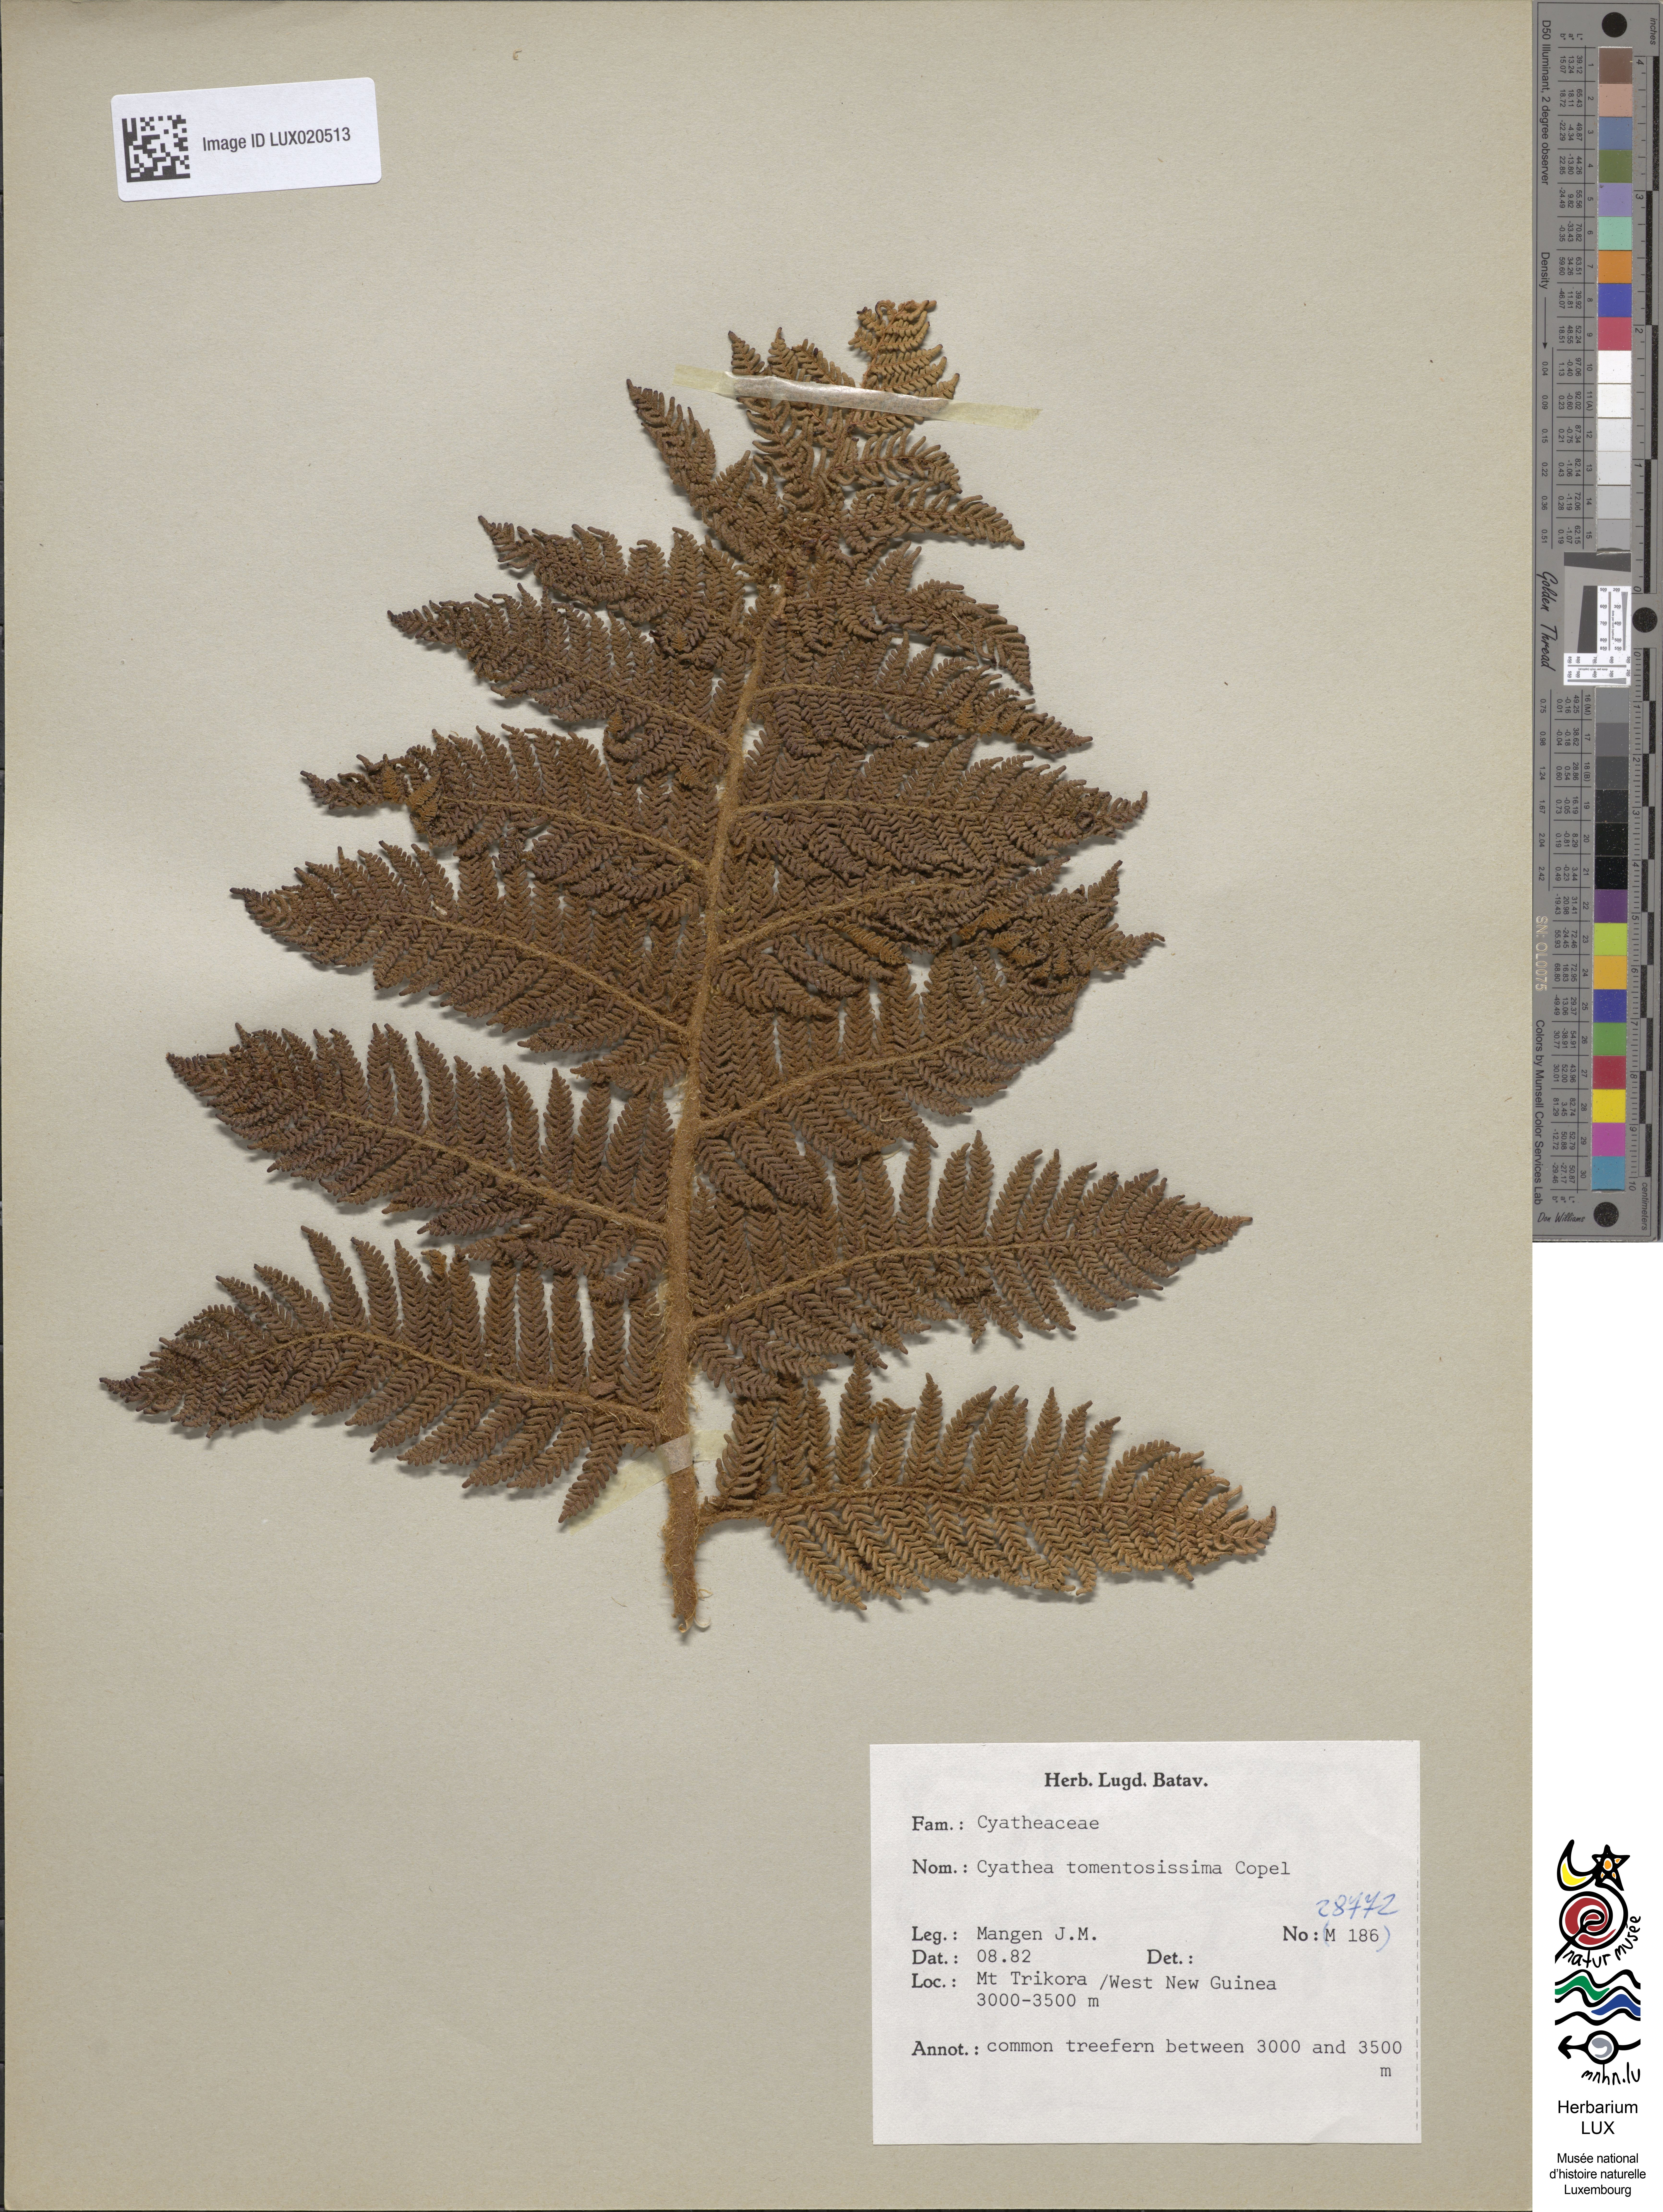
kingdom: Plantae
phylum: Tracheophyta
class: Polypodiopsida
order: Cyatheales
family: Cyatheaceae
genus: Sphaeropteris
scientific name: Sphaeropteris tomentosissima
